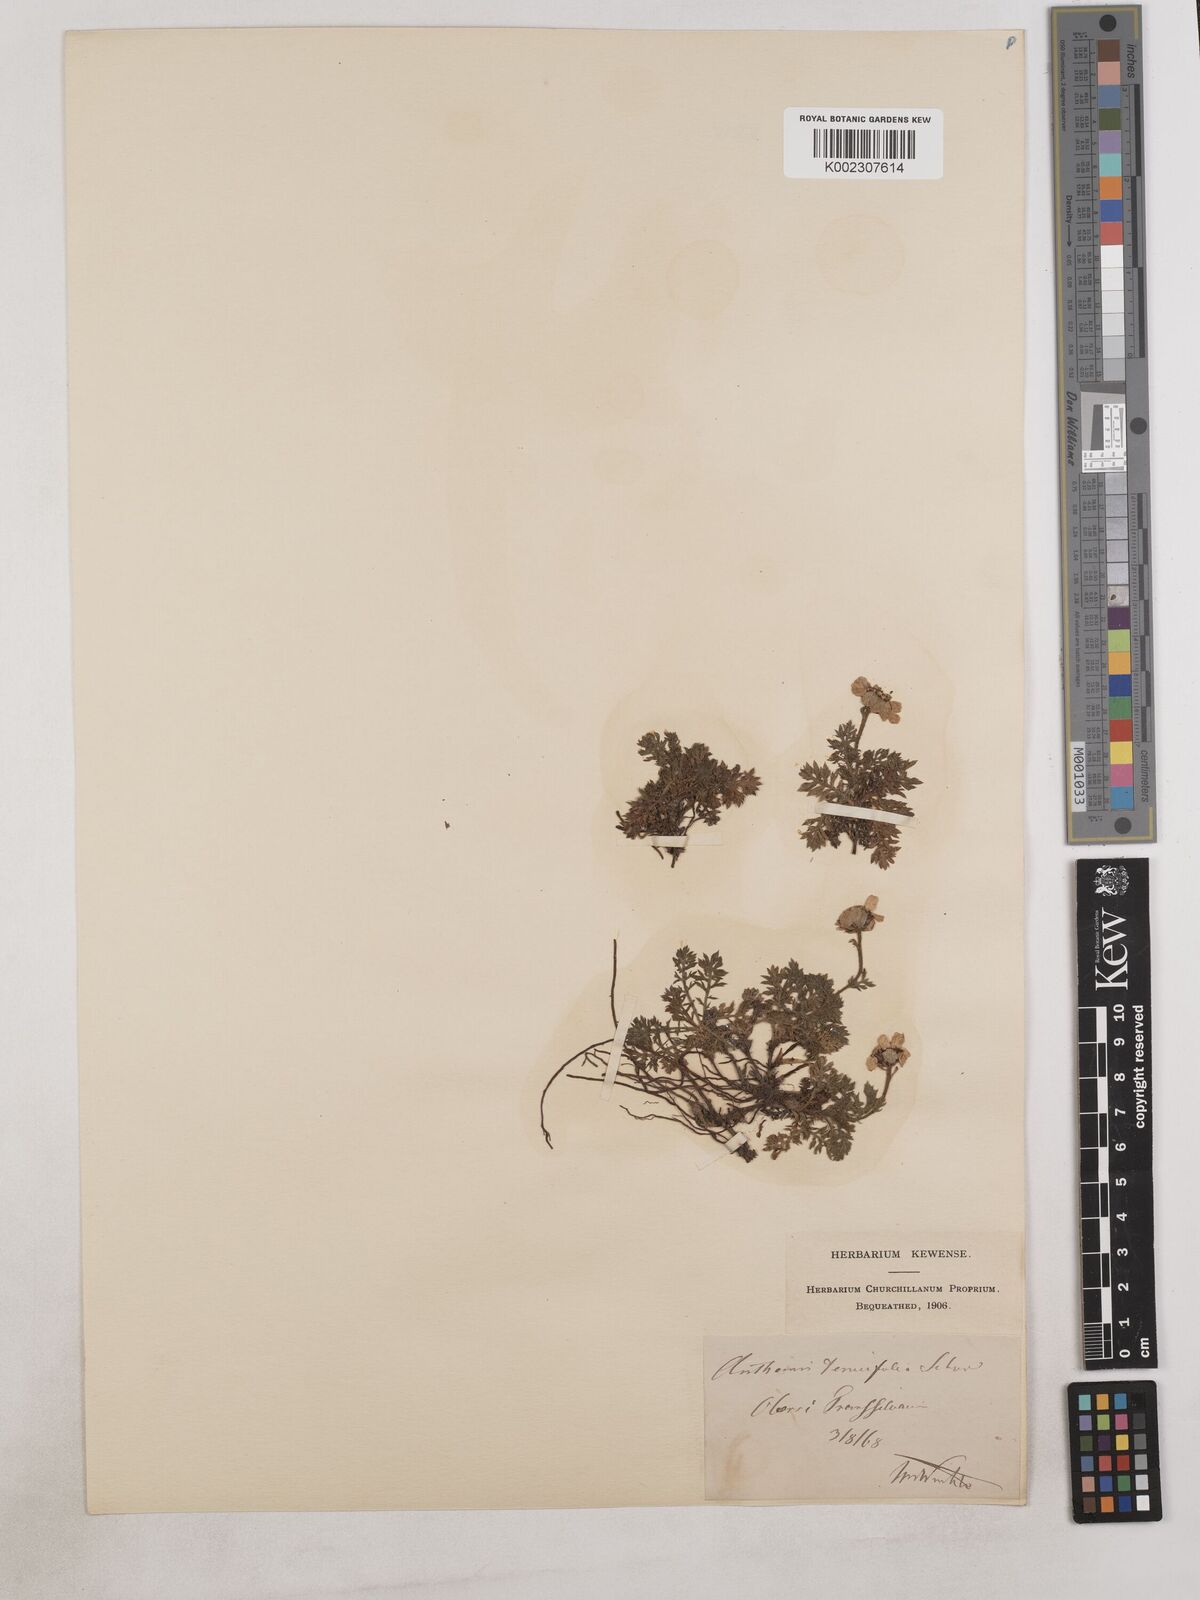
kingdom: Plantae
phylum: Tracheophyta
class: Magnoliopsida
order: Asterales
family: Asteraceae
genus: Achillea
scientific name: Achillea millefolium
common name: Yarrow
